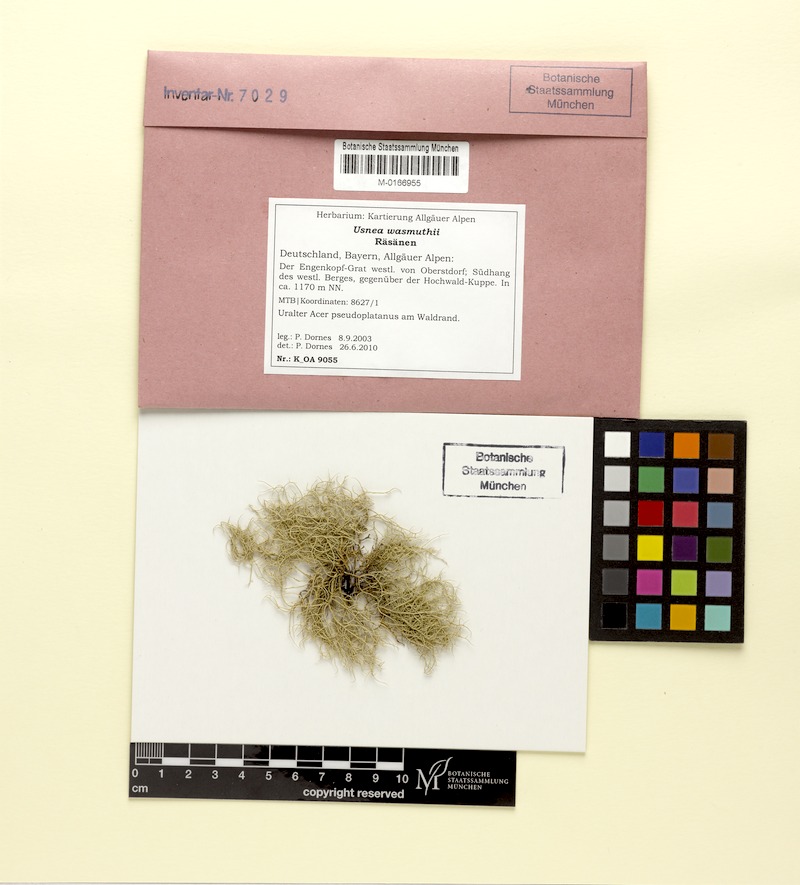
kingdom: Fungi
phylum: Ascomycota
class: Lecanoromycetes
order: Lecanorales
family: Parmeliaceae
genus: Usnea
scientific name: Usnea wasmuthii
